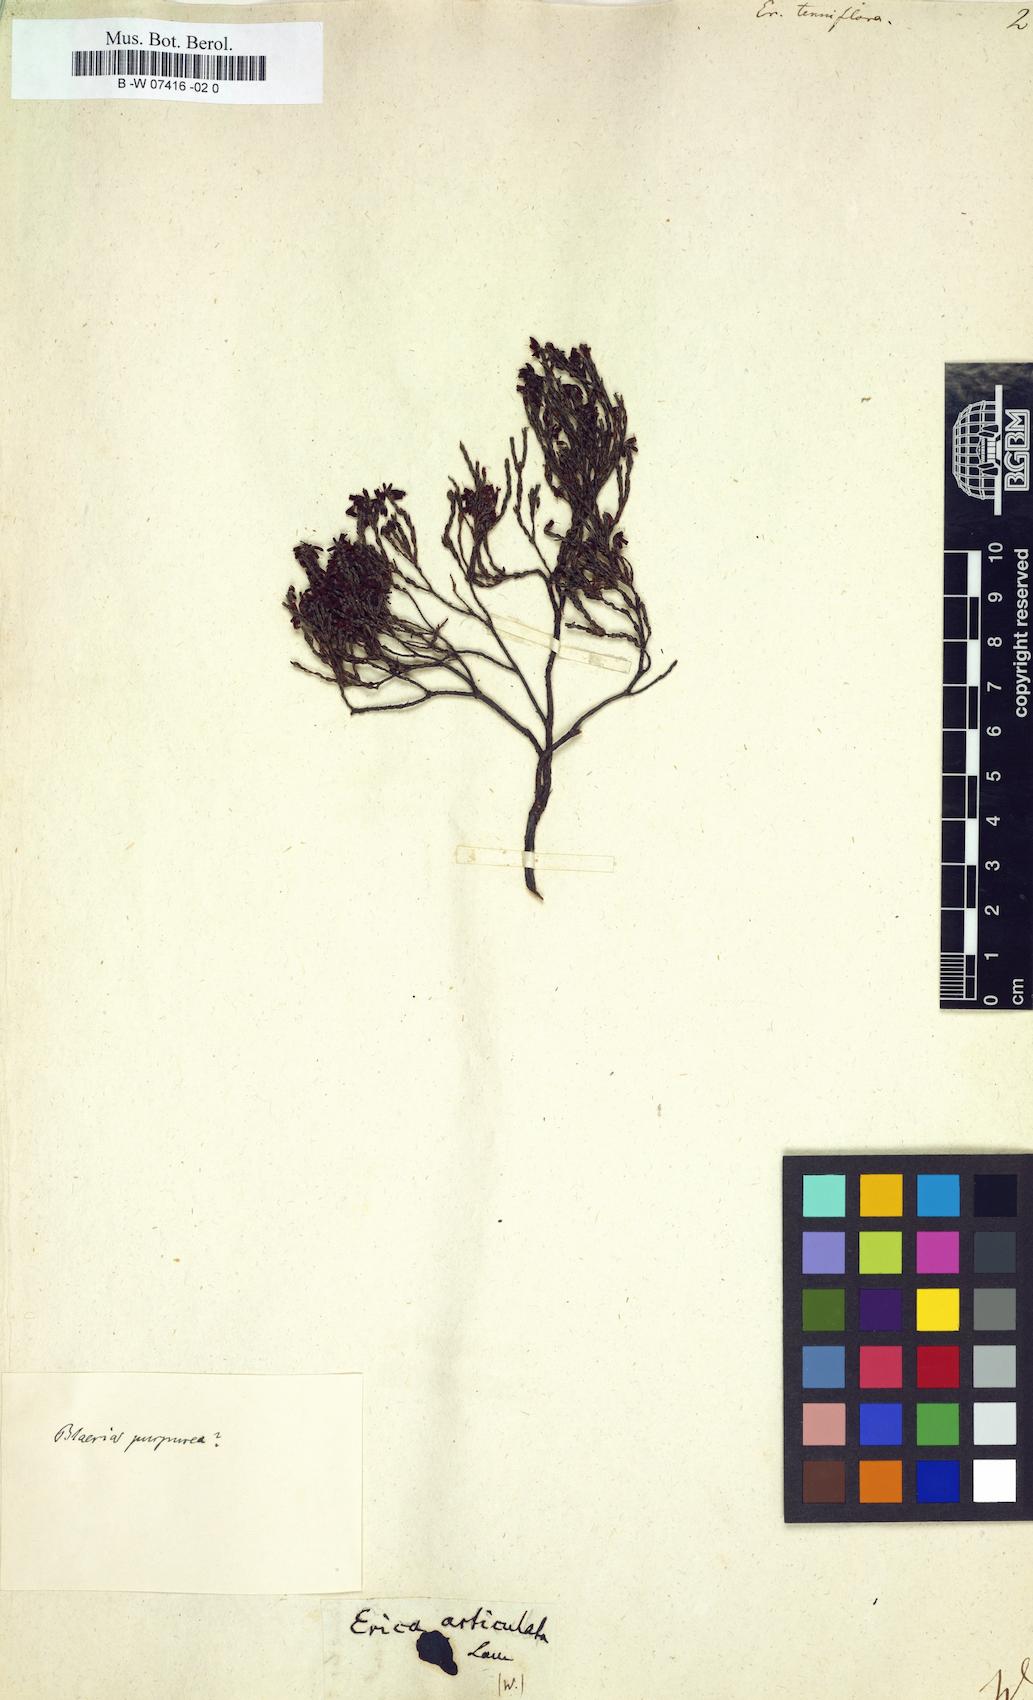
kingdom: Plantae
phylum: Tracheophyta
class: Magnoliopsida
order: Ericales
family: Ericaceae
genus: Erica
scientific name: Erica cylindrica
